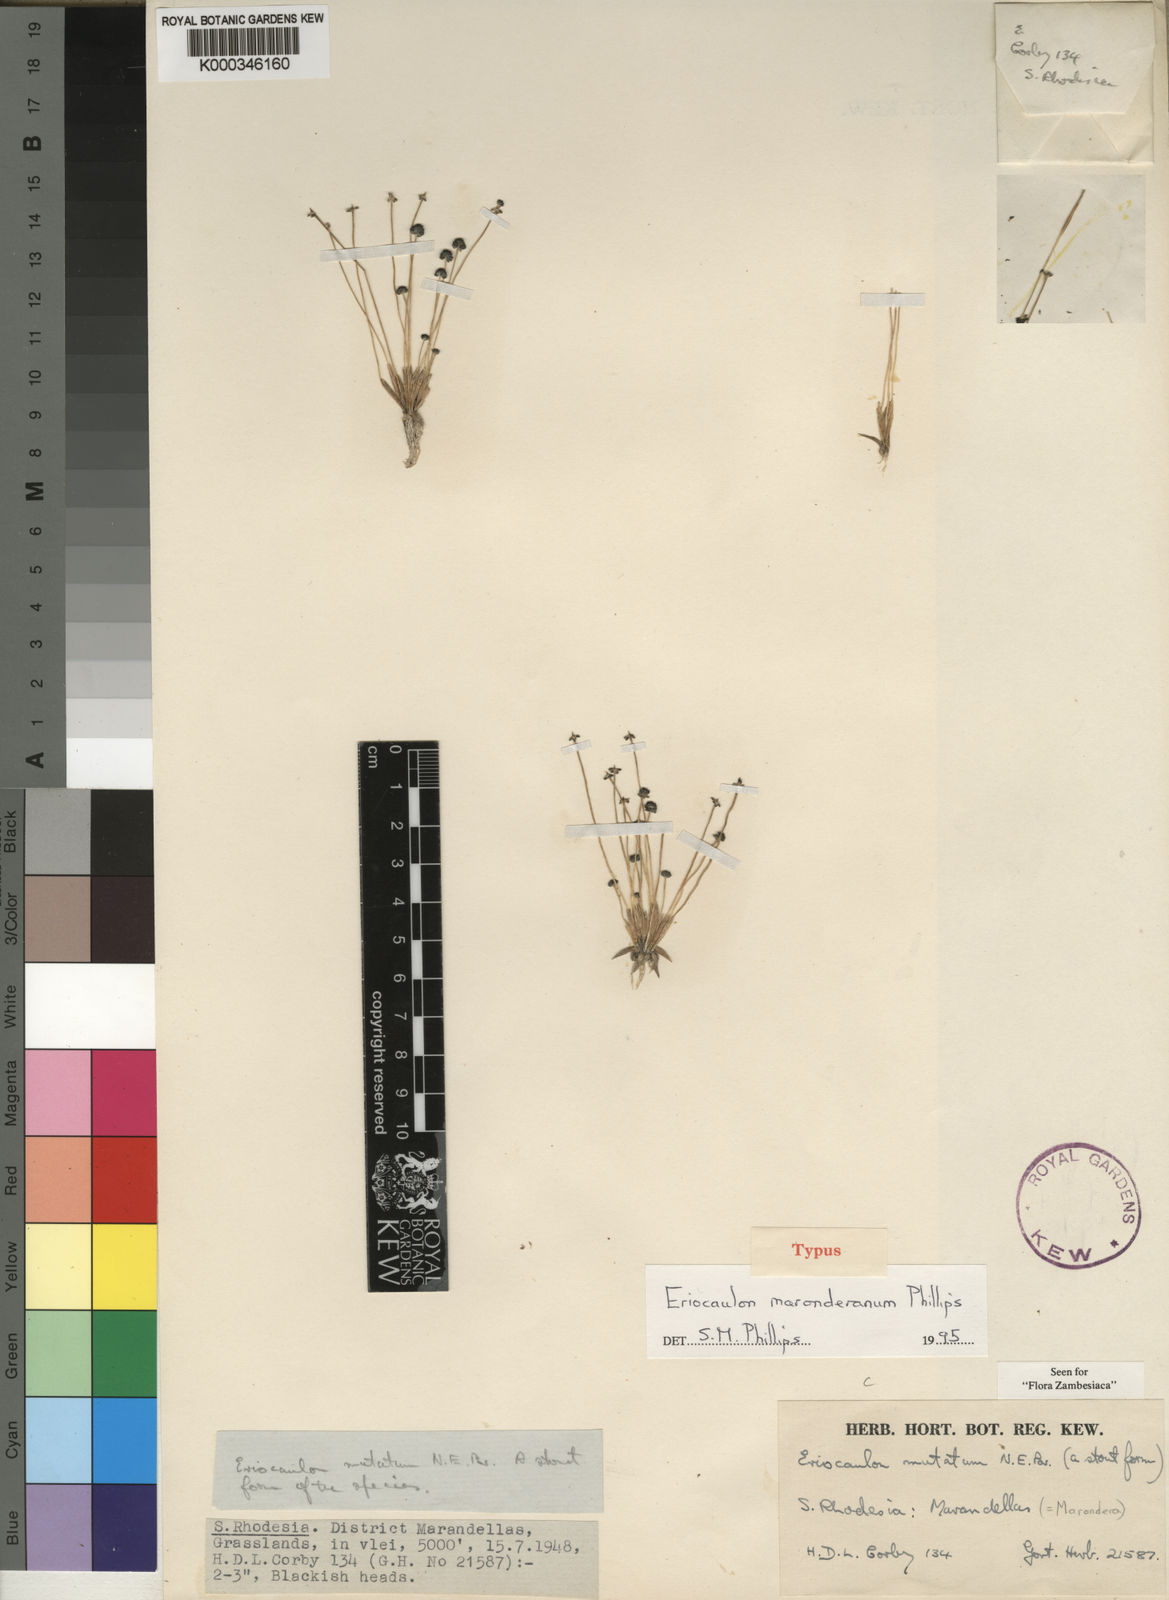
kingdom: Plantae
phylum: Tracheophyta
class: Liliopsida
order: Poales
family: Eriocaulaceae
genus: Eriocaulon
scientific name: Eriocaulon maronderanum
